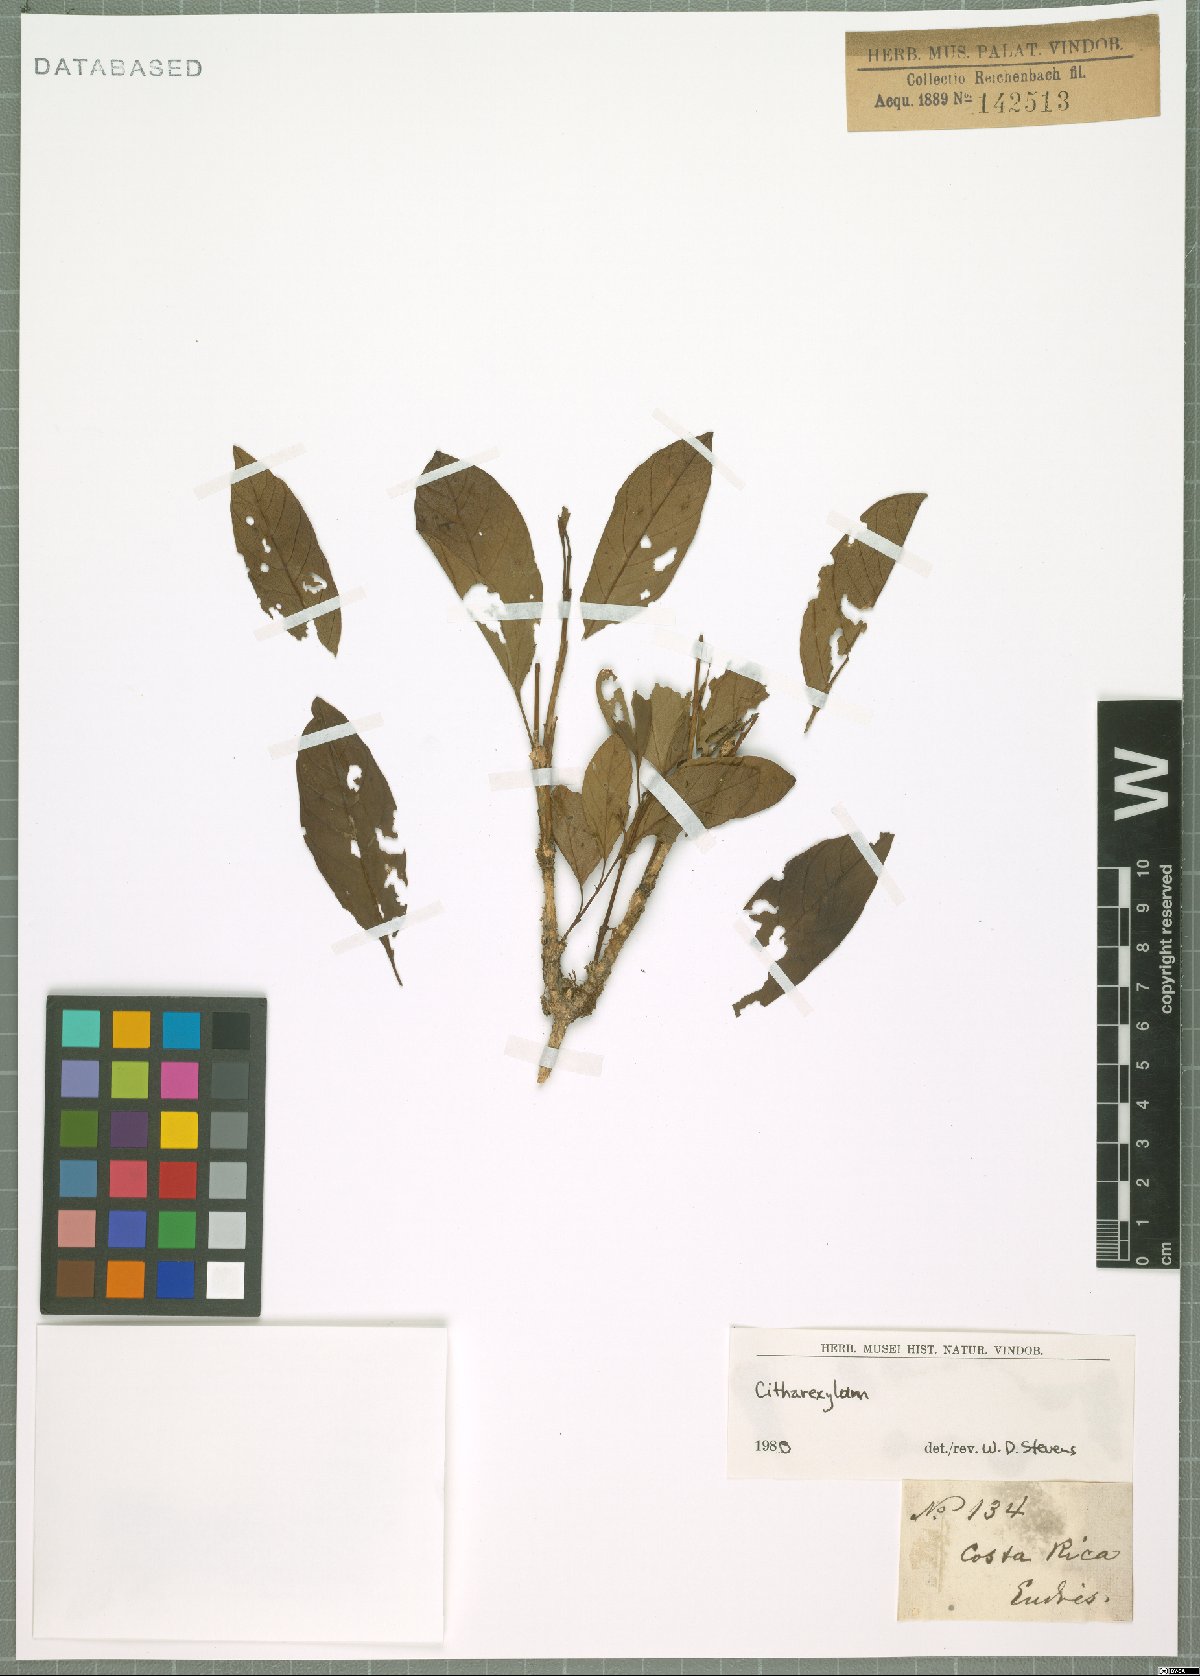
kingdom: Plantae
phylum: Tracheophyta
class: Magnoliopsida
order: Lamiales
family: Verbenaceae
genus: Citharexylum
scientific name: Citharexylum
